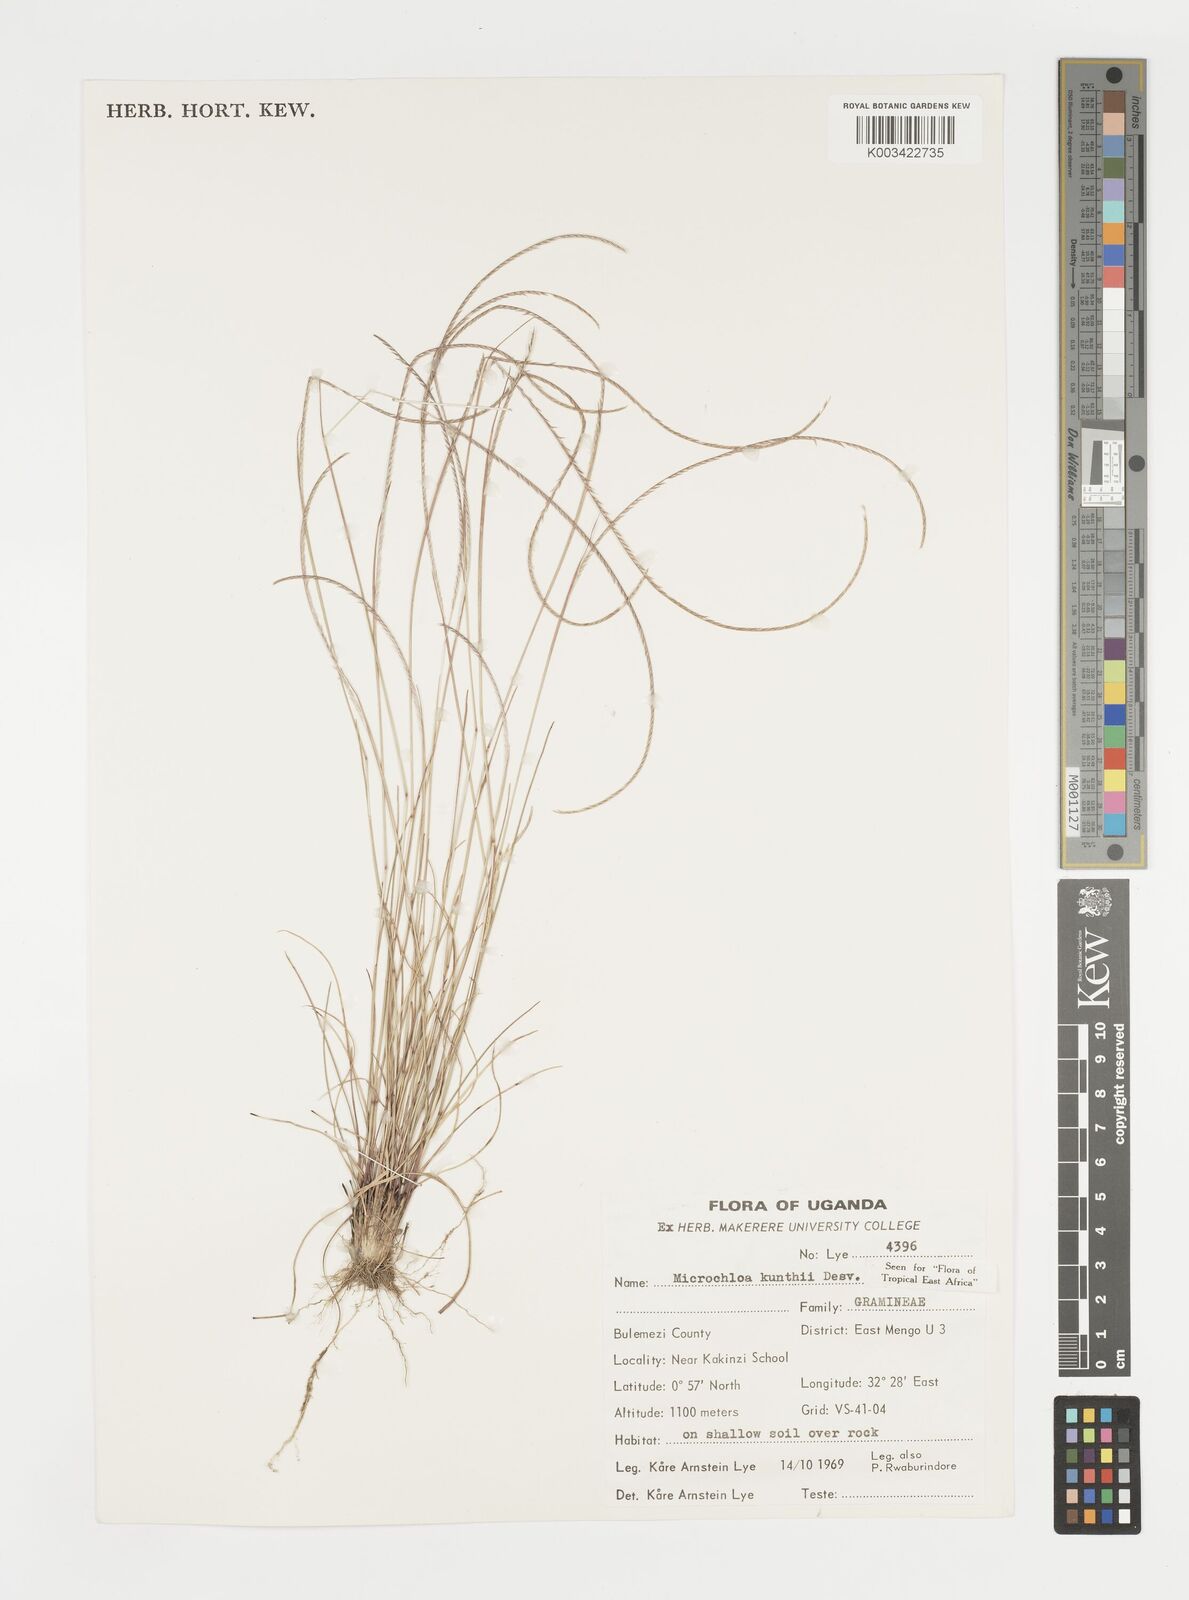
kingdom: Plantae
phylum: Tracheophyta
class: Liliopsida
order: Poales
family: Poaceae
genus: Microchloa
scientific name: Microchloa kunthii
